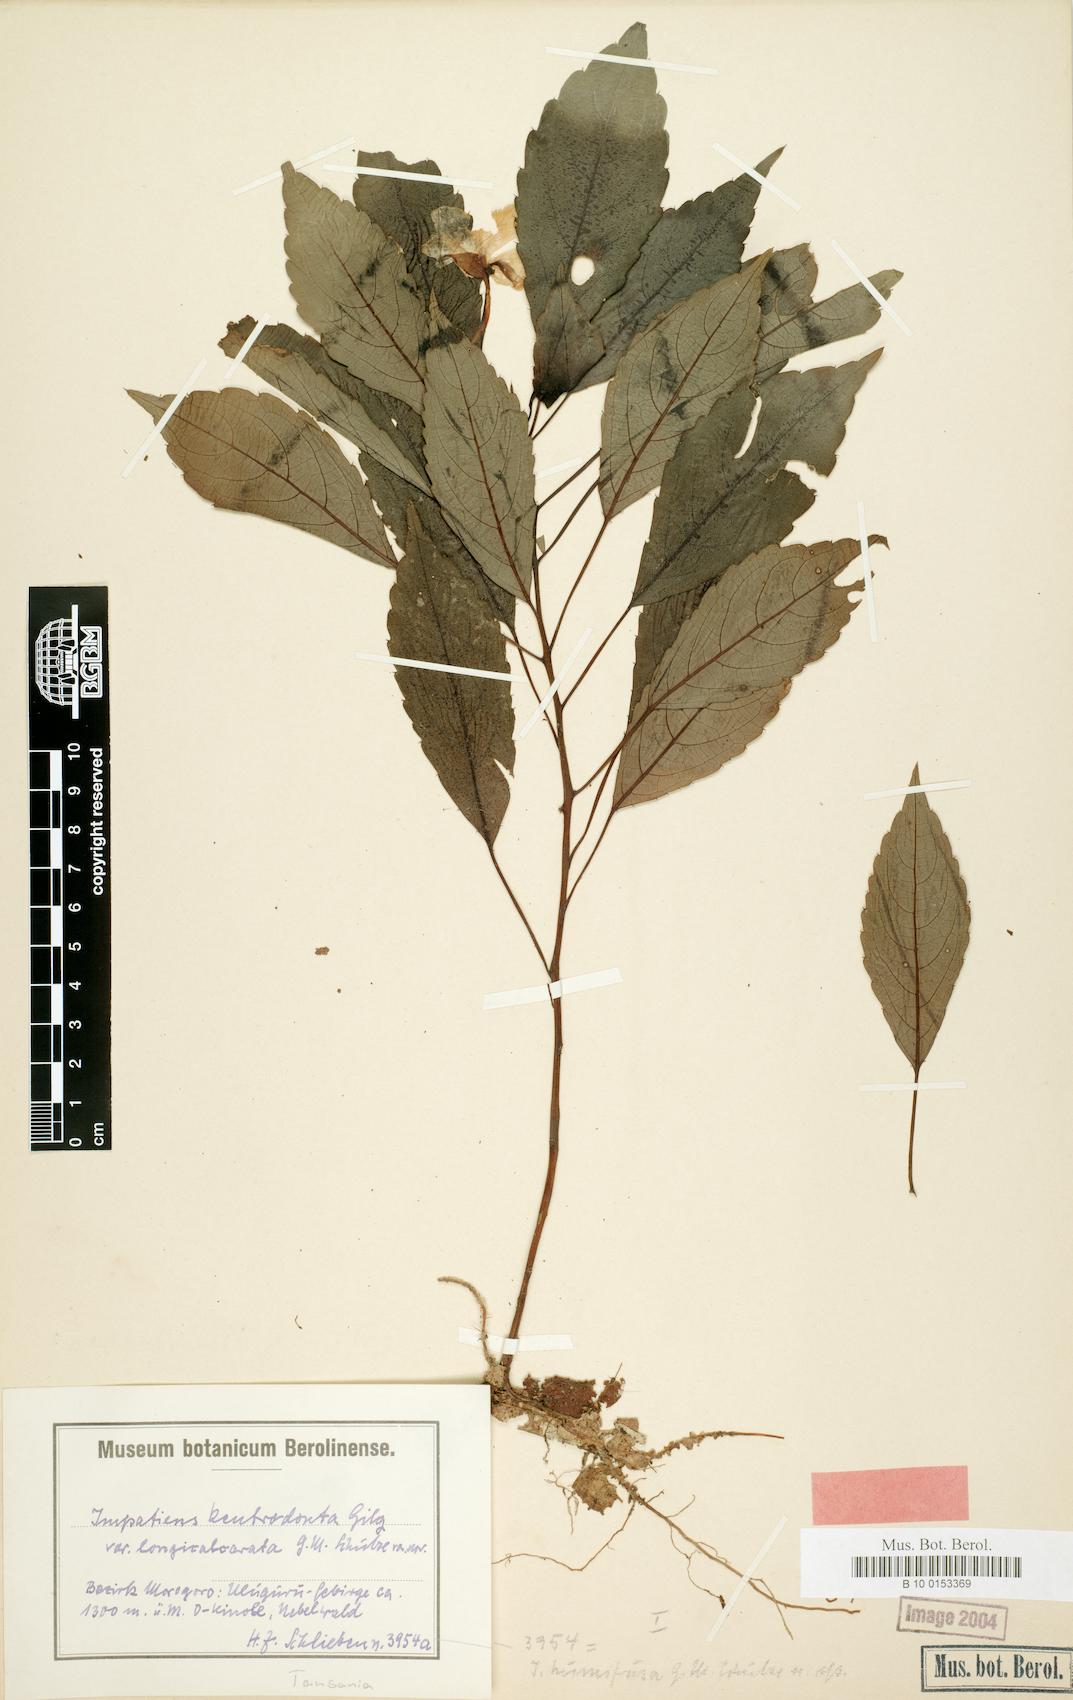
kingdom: Plantae
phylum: Tracheophyta
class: Magnoliopsida
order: Ericales
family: Balsaminaceae
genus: Impatiens
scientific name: Impatiens kentrodonta
